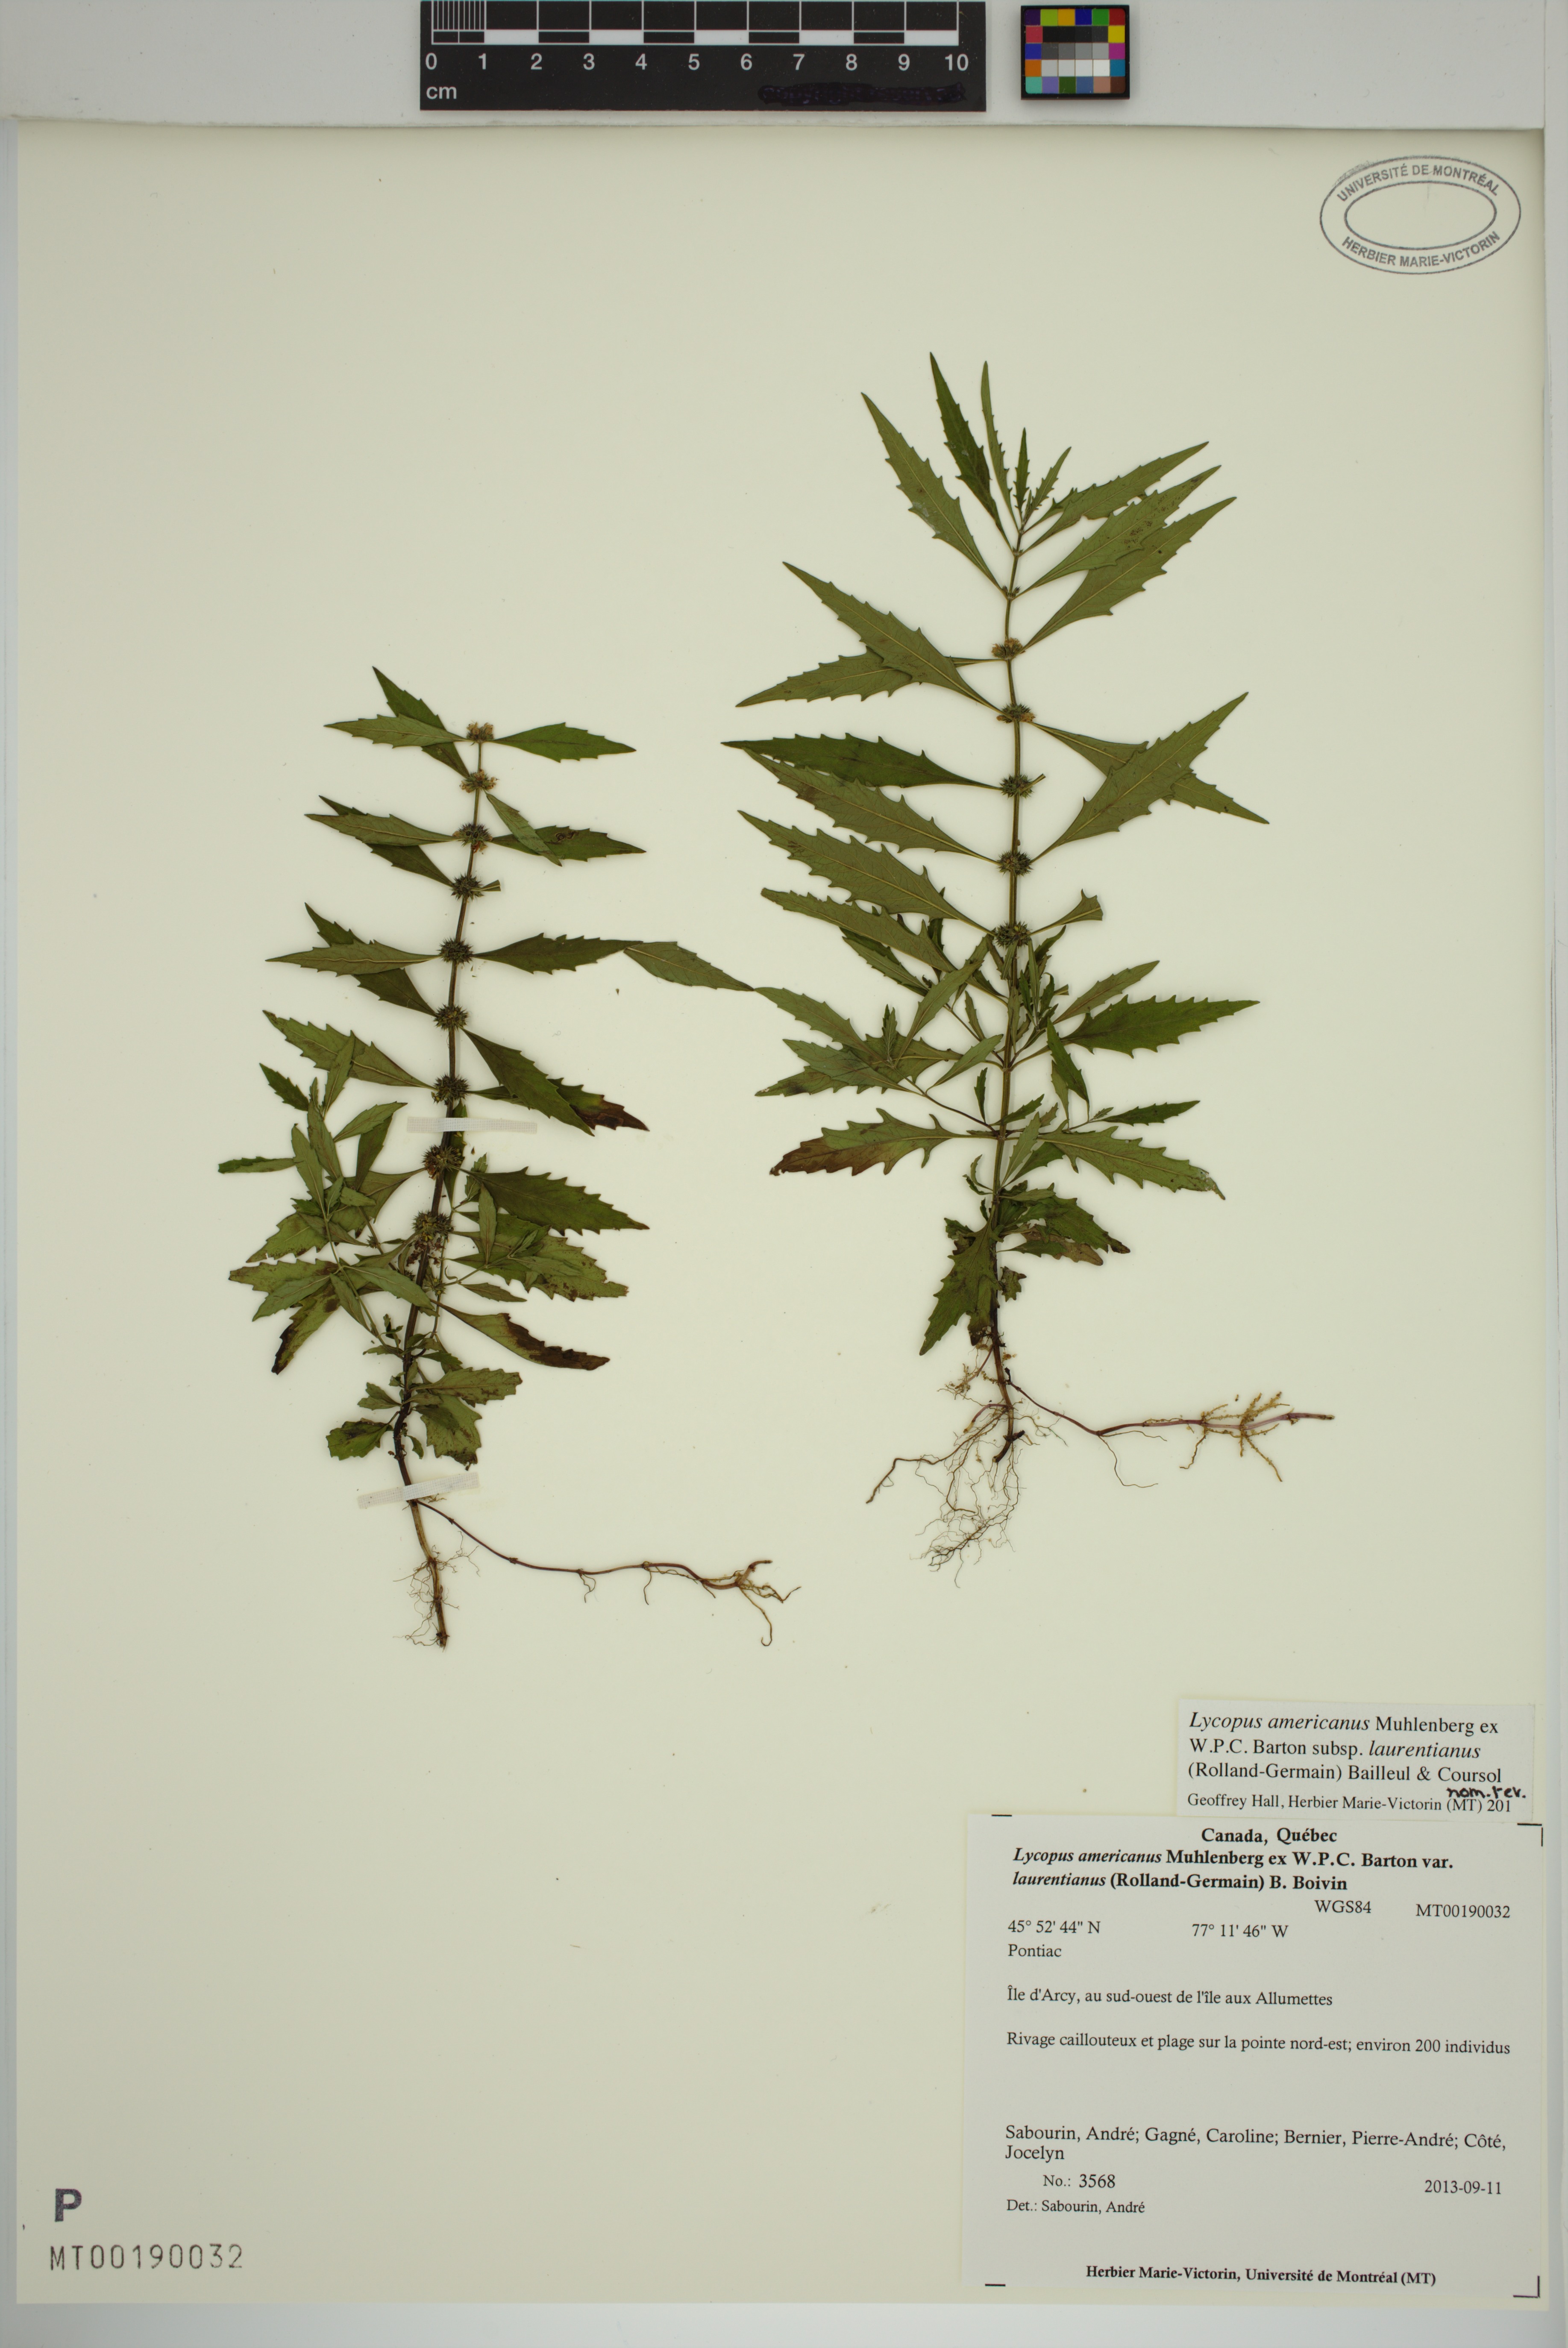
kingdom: Plantae
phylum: Tracheophyta
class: Magnoliopsida
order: Lamiales
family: Lamiaceae
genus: Lycopus
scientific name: Lycopus americanus
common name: American bugleweed
